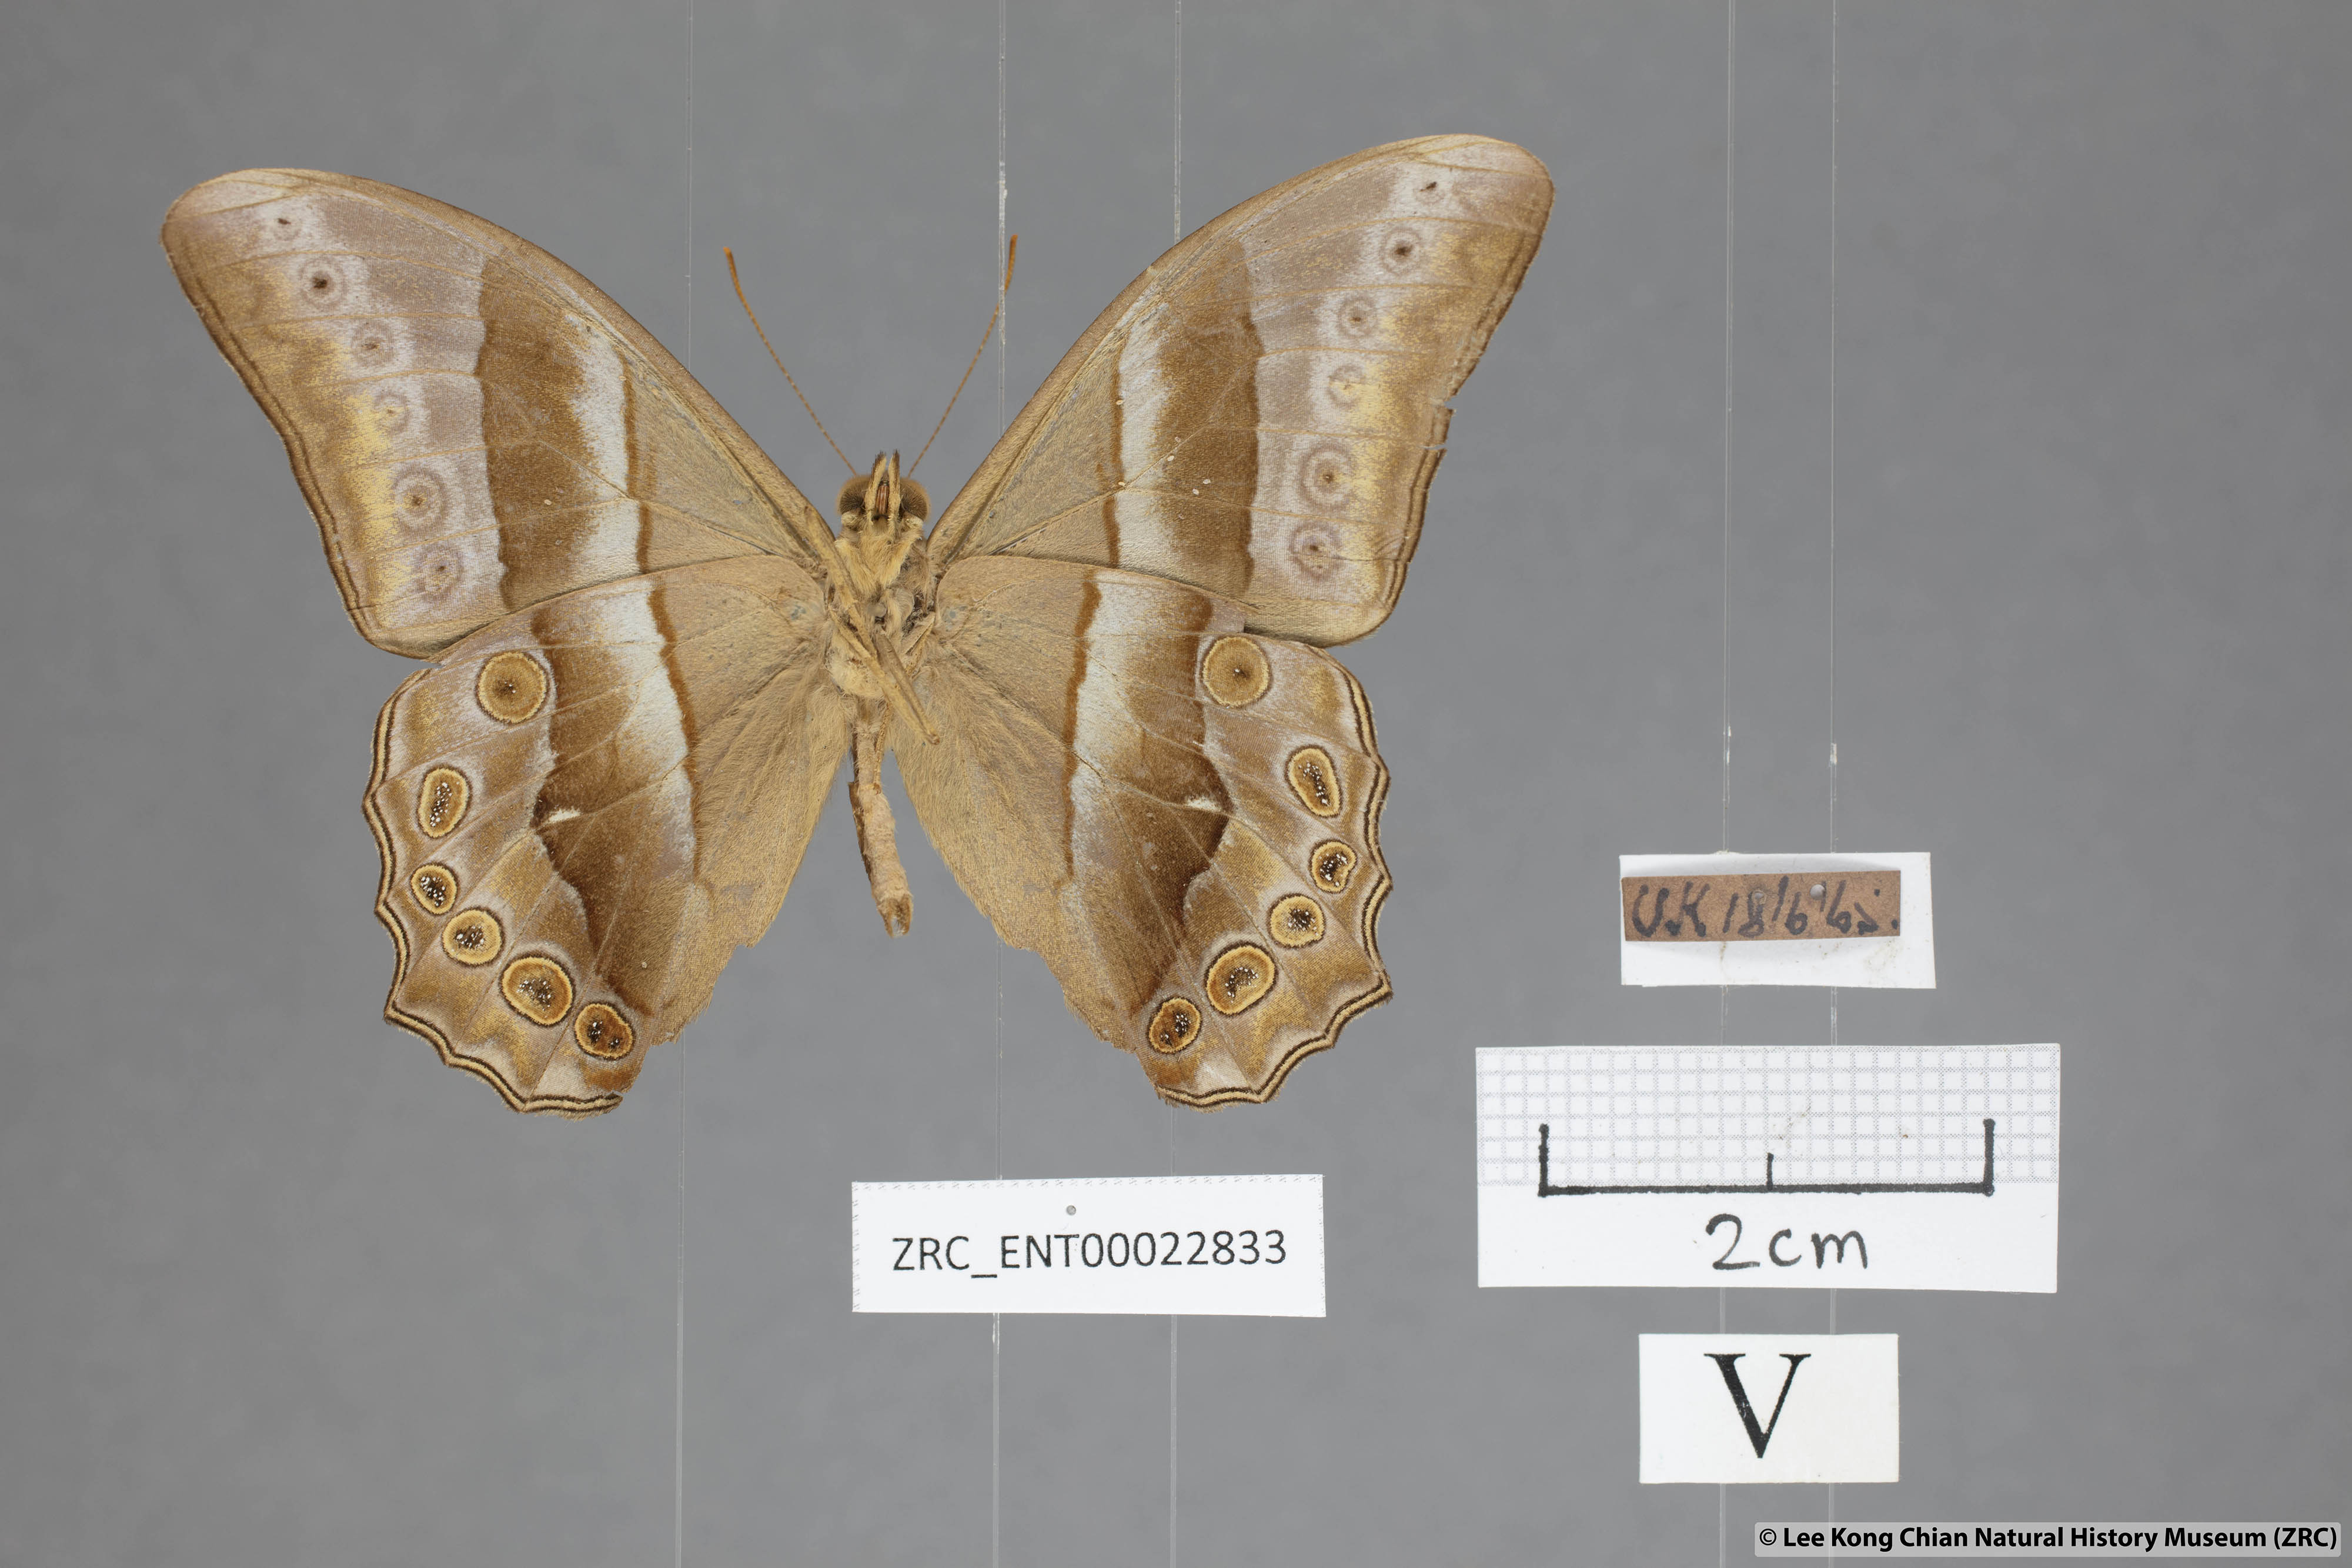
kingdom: Animalia
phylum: Arthropoda
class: Insecta
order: Lepidoptera
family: Nymphalidae
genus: Lethe
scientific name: Lethe mekara
